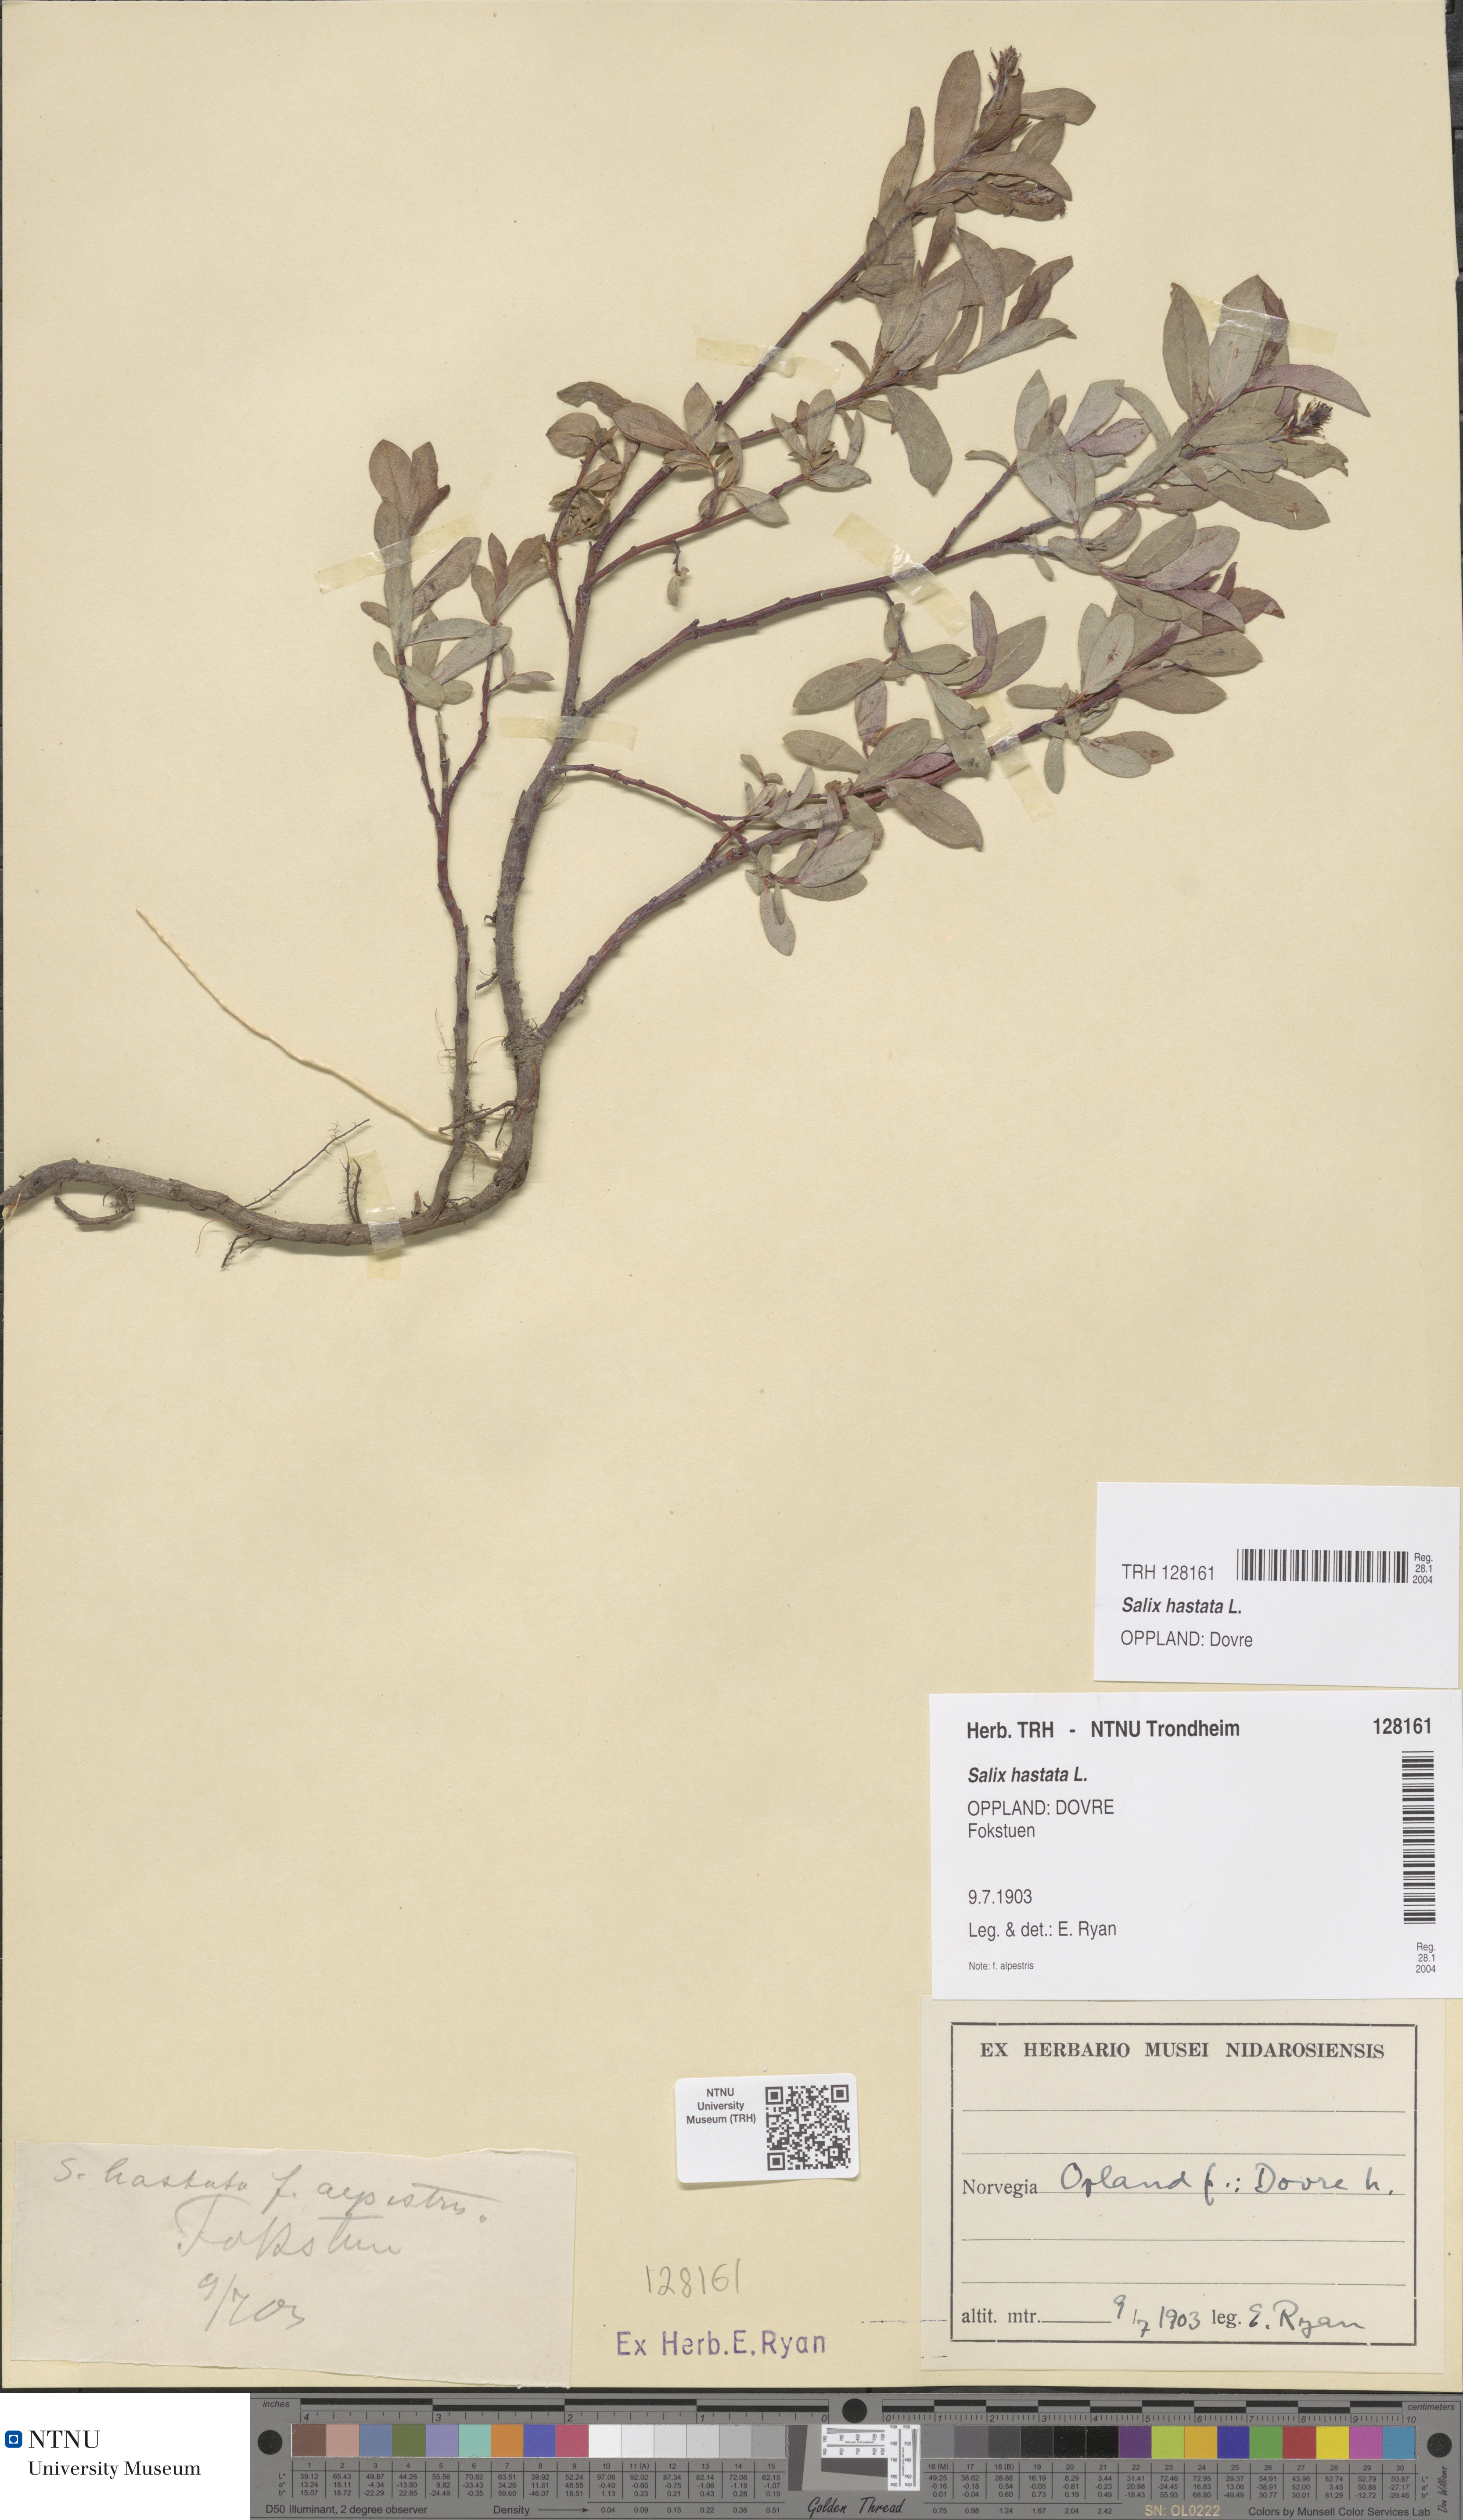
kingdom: Plantae
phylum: Tracheophyta
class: Magnoliopsida
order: Malpighiales
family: Salicaceae
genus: Salix
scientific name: Salix hastata
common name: Halberd willow
